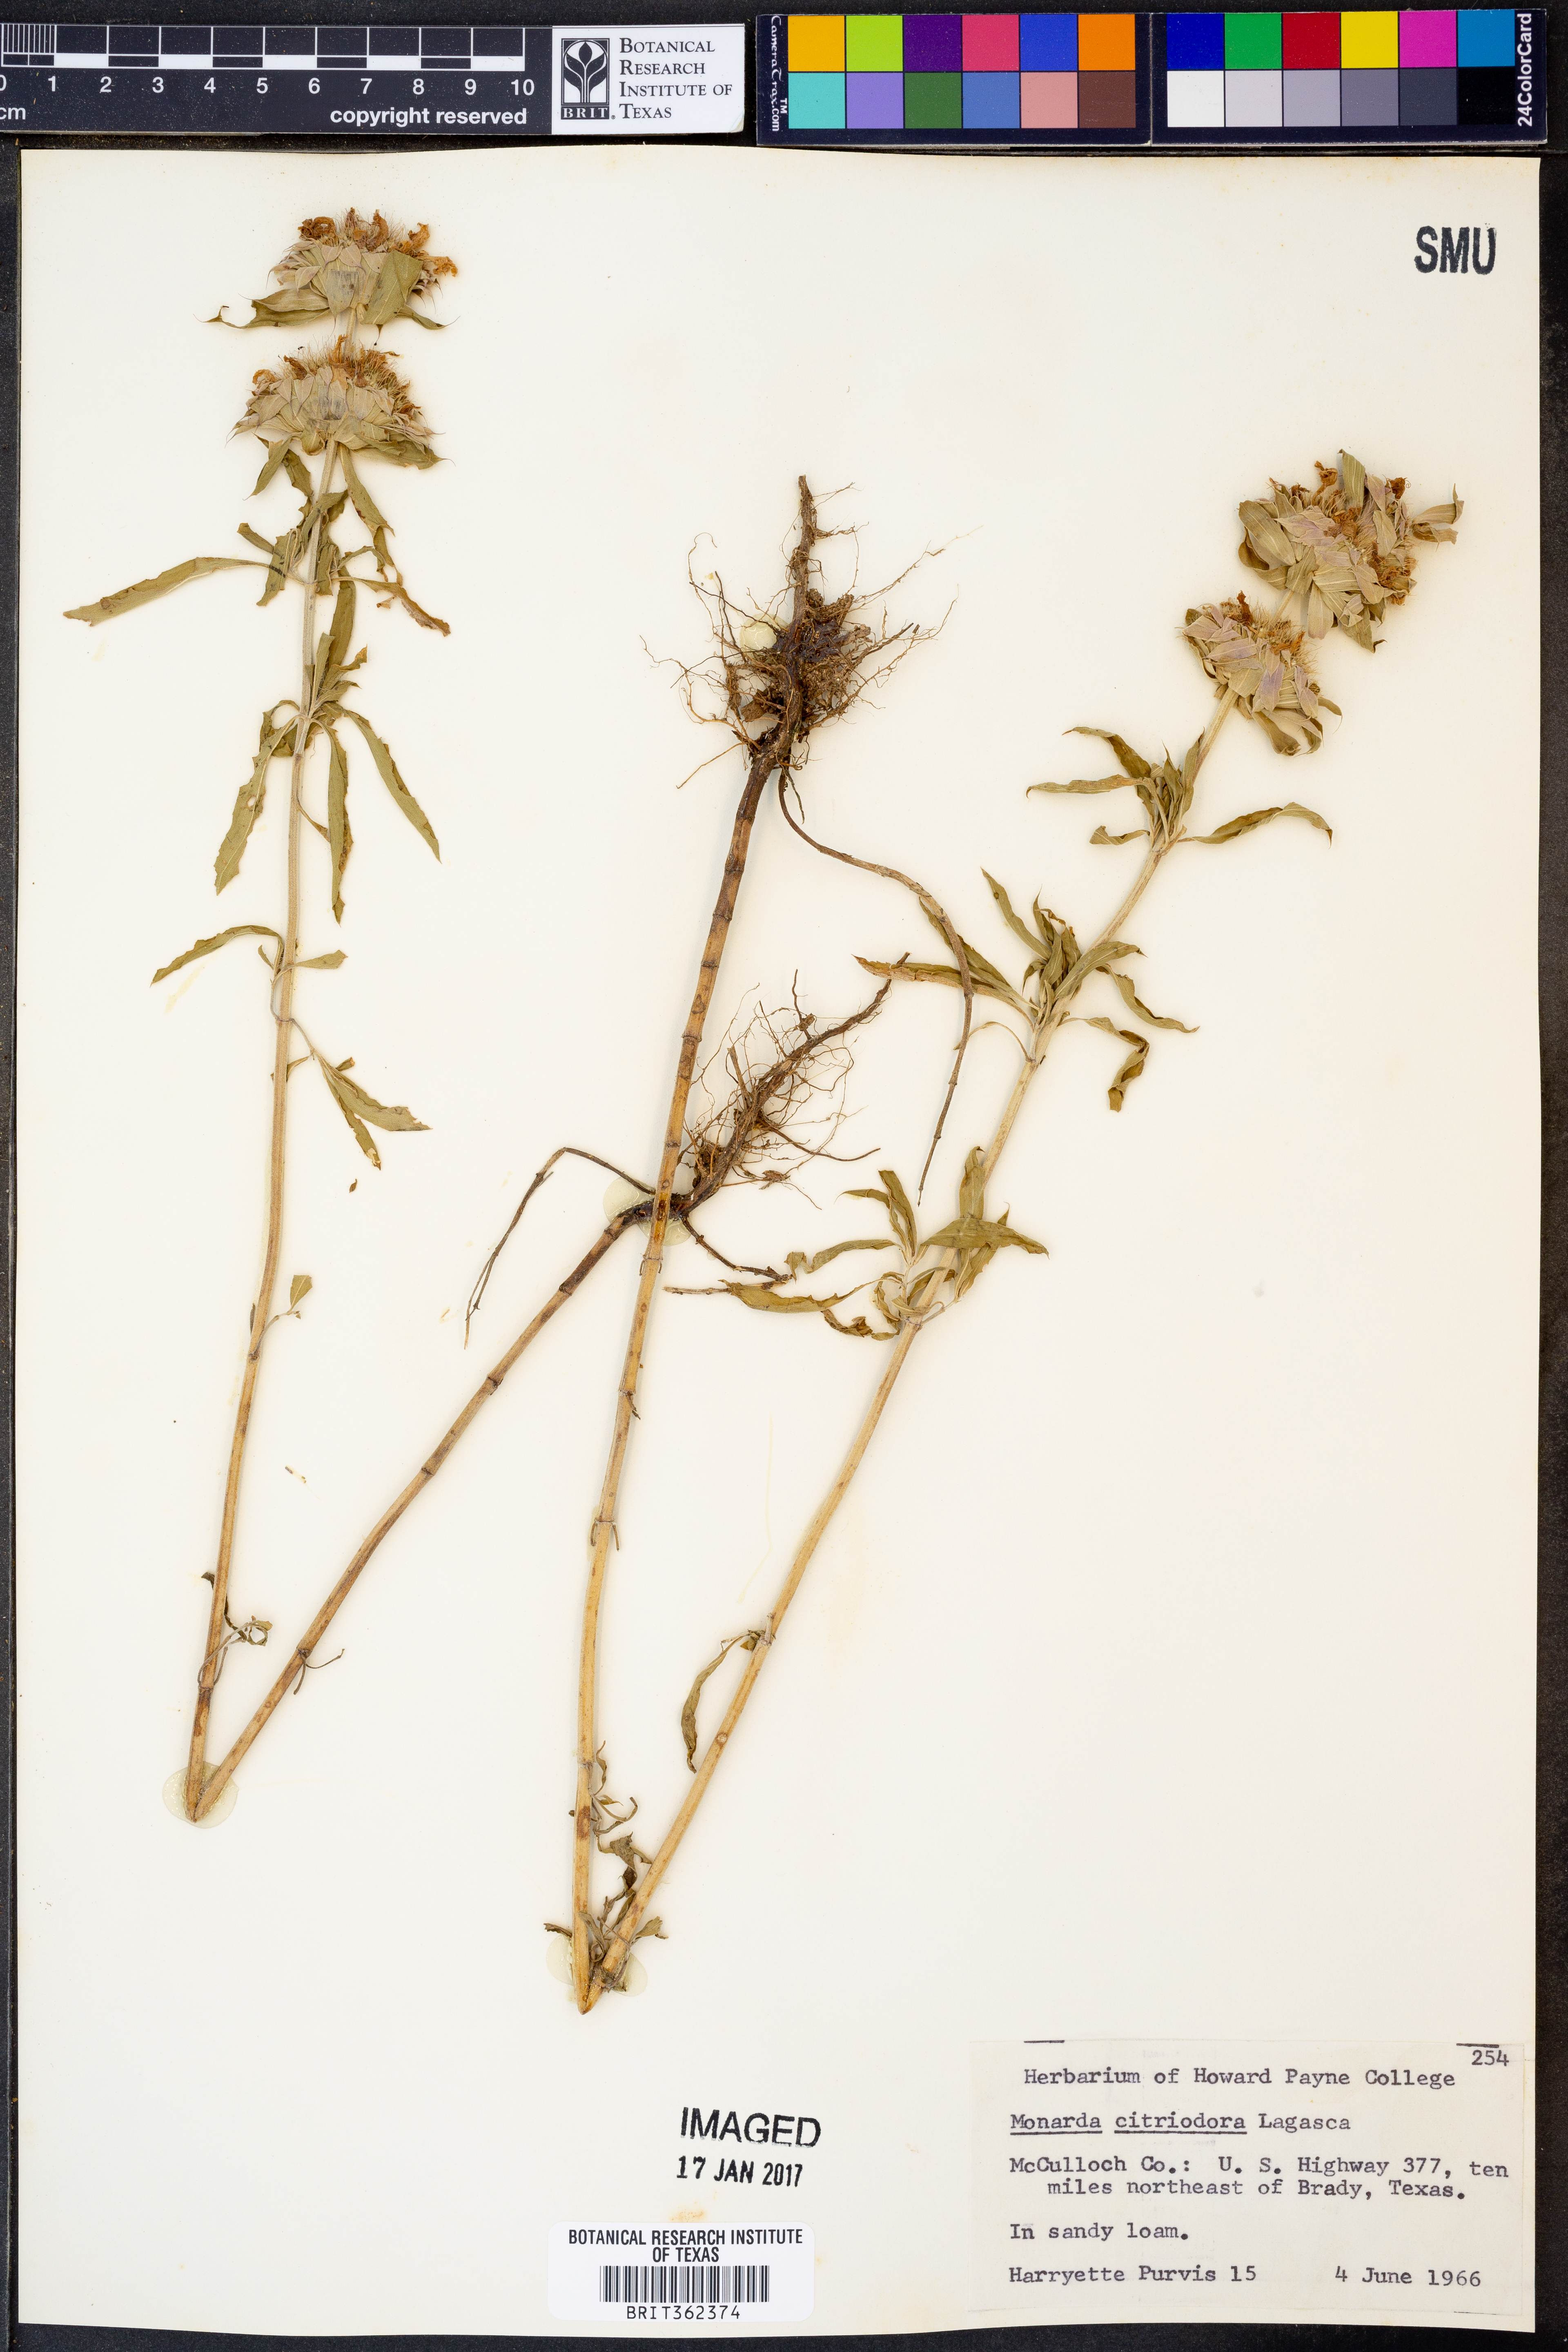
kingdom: Plantae
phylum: Tracheophyta
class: Magnoliopsida
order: Lamiales
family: Lamiaceae
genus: Monarda
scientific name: Monarda citriodora
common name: Lemon beebalm
